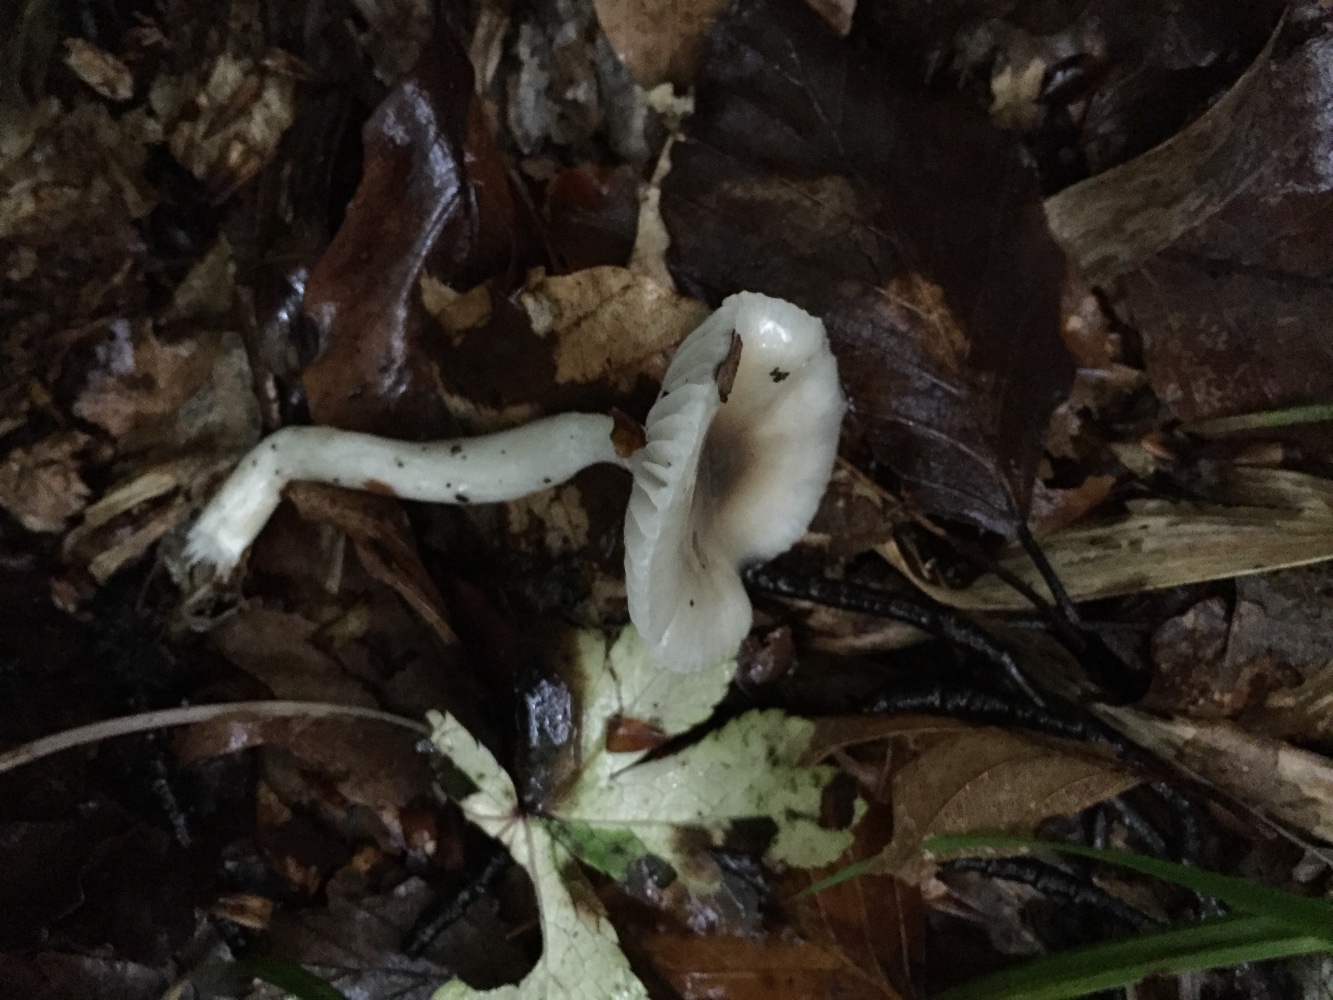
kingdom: Fungi
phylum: Basidiomycota
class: Agaricomycetes
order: Agaricales
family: Hygrophoraceae
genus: Hygrophorus
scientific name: Hygrophorus mesotephrus
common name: askegrå sneglehat
